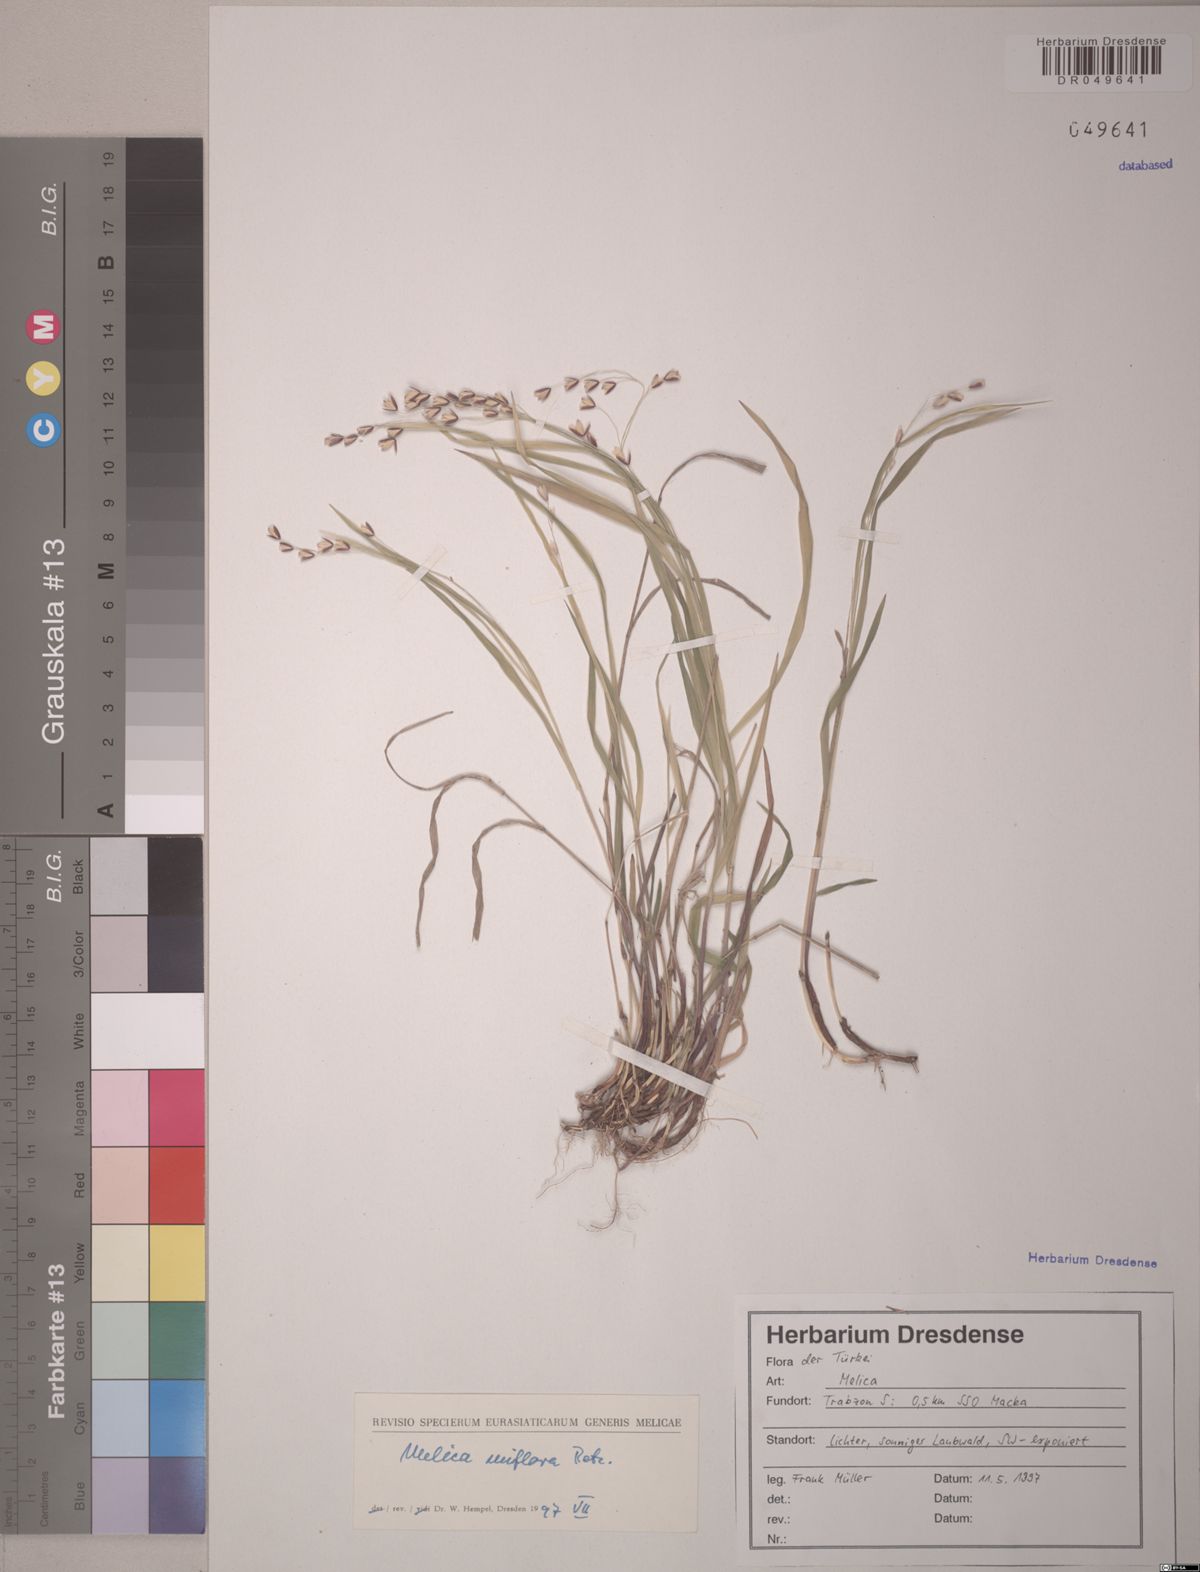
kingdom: Plantae
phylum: Tracheophyta
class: Liliopsida
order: Poales
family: Poaceae
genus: Melica
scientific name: Melica uniflora
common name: Wood melick
